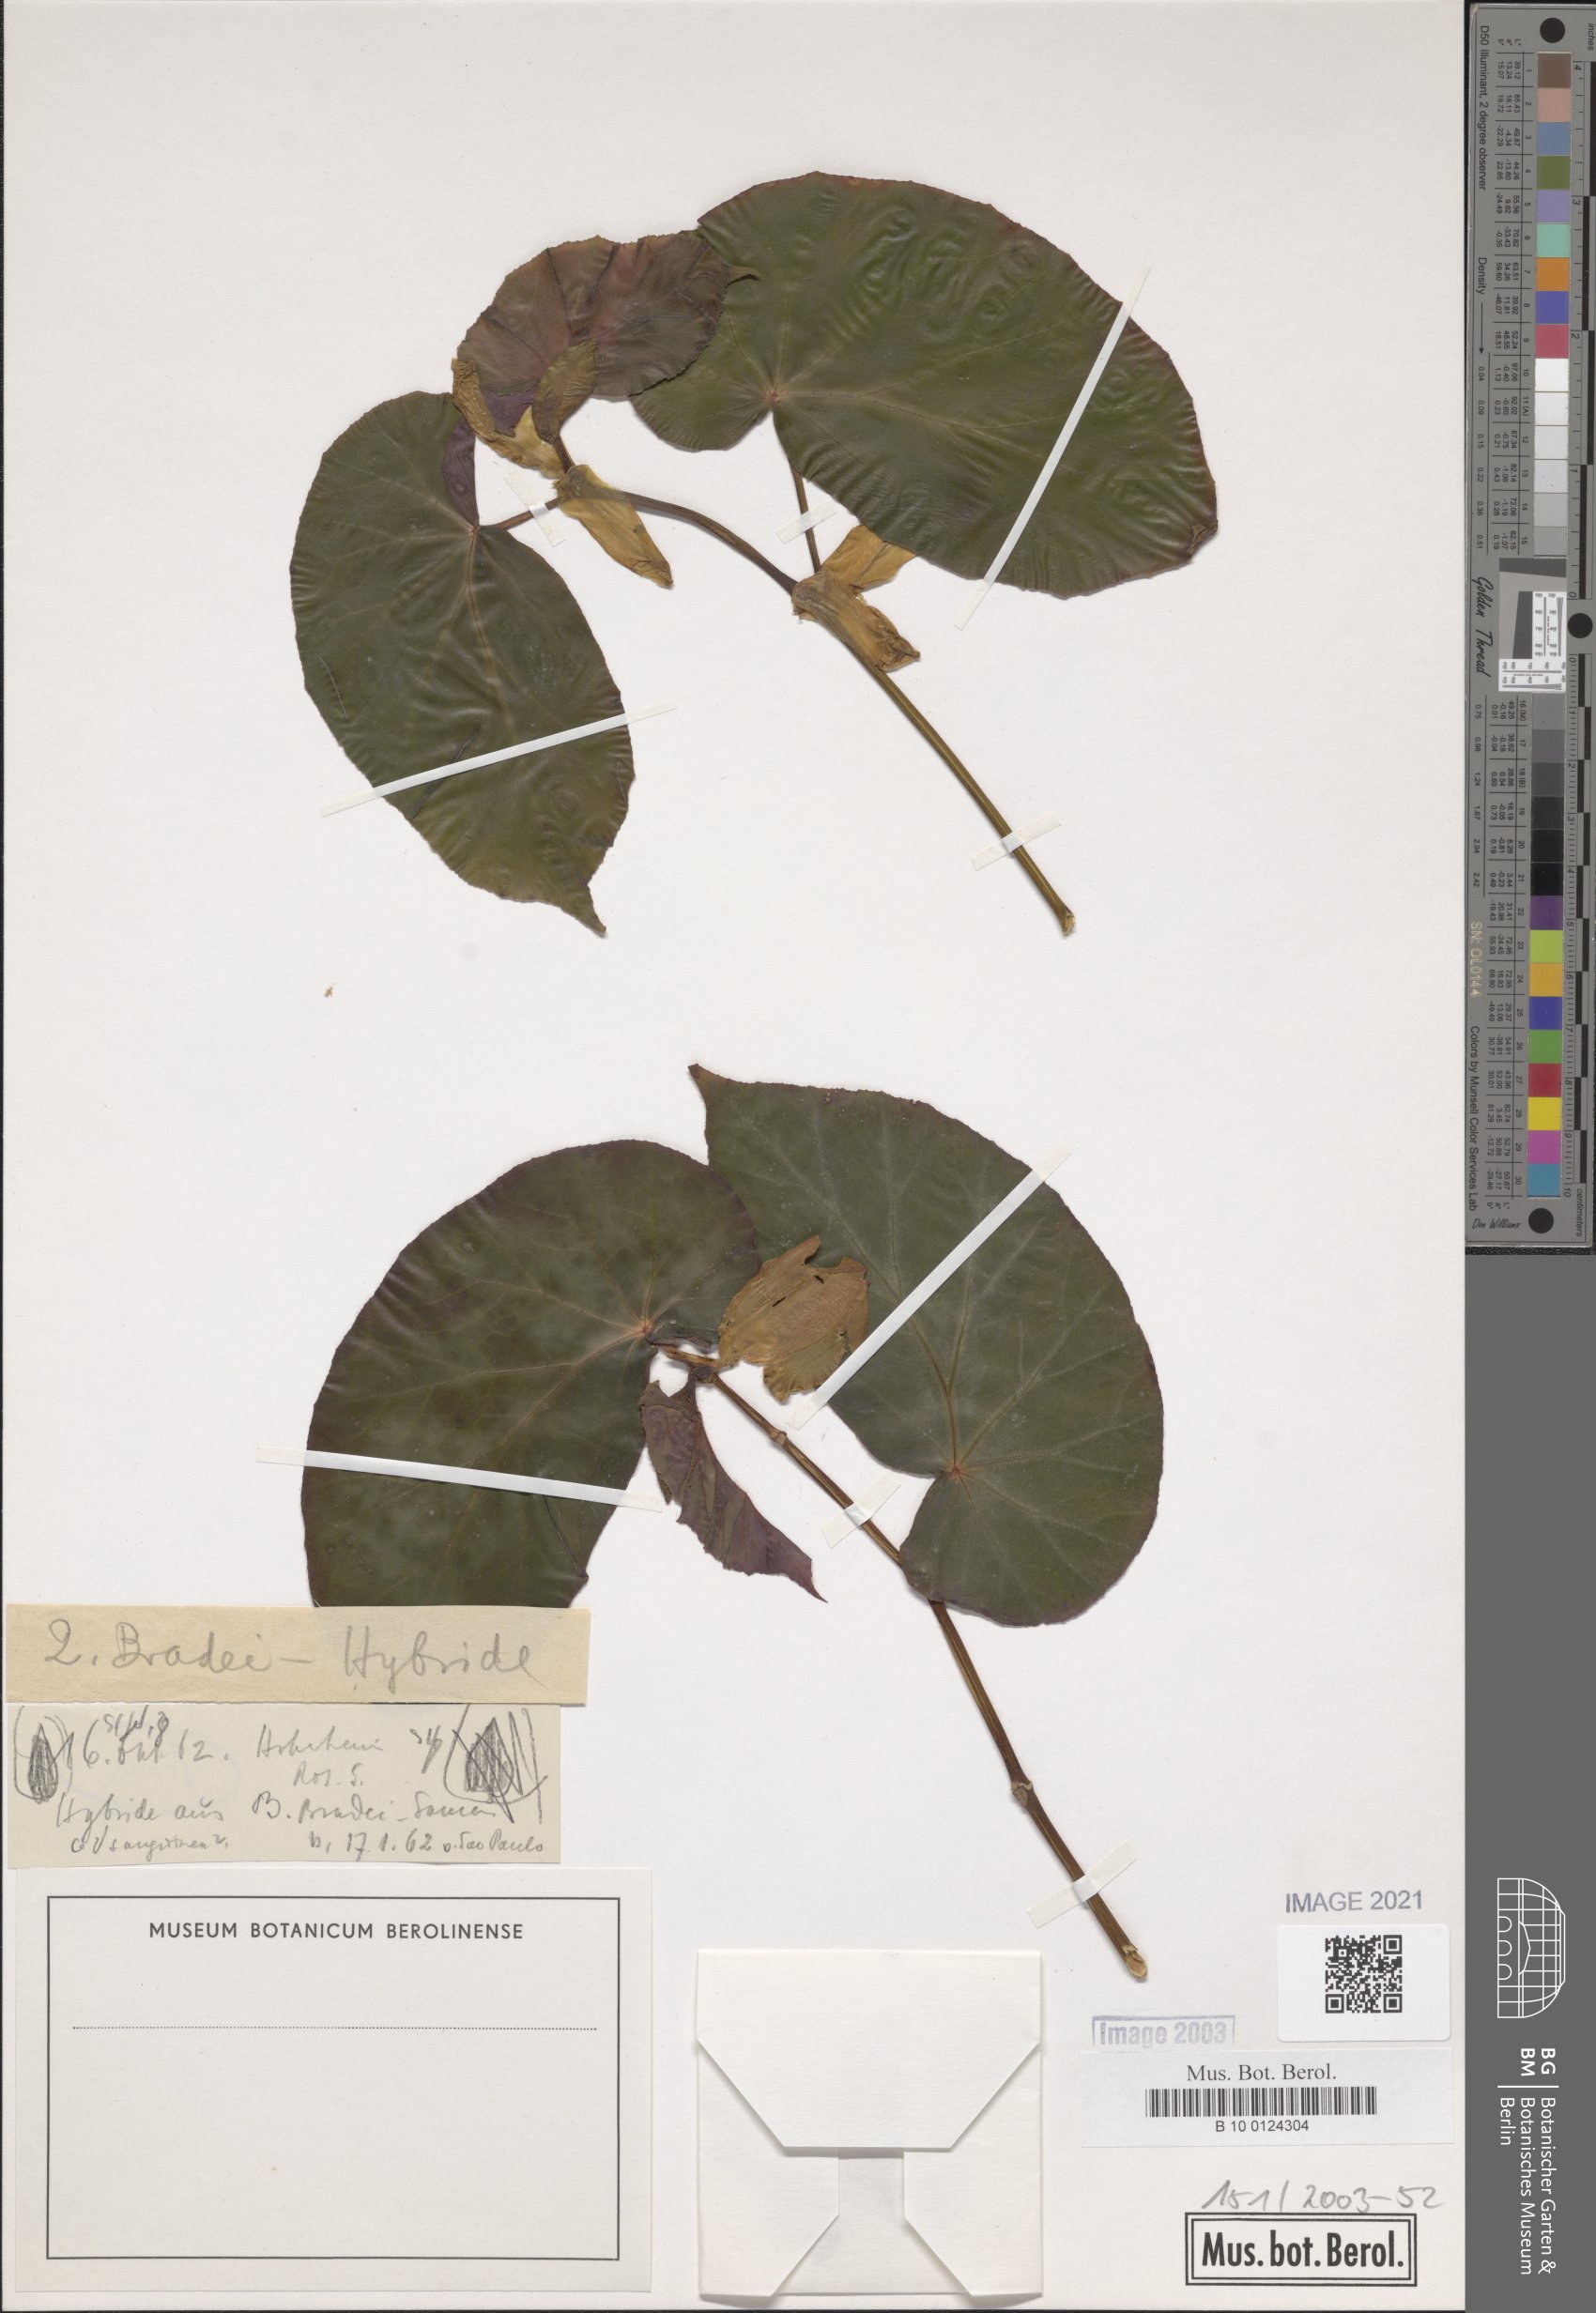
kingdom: Plantae
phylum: Tracheophyta
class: Magnoliopsida
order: Cucurbitales
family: Begoniaceae
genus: Begonia
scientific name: Begonia bradei
